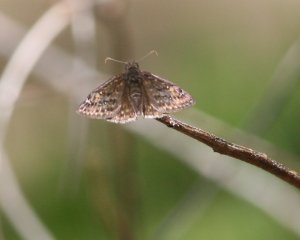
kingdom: Animalia
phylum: Arthropoda
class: Insecta
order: Lepidoptera
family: Hesperiidae
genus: Gesta
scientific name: Gesta
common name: Juvenal's Duskywing
